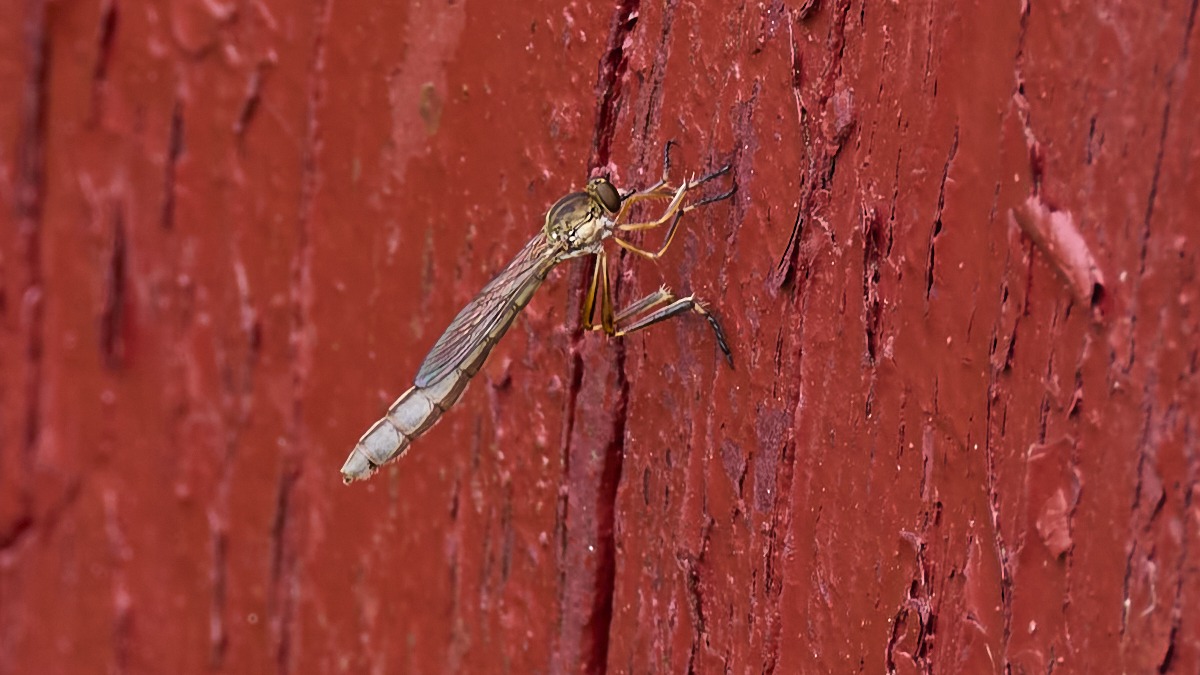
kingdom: Animalia
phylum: Arthropoda
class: Insecta
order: Diptera
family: Asilidae
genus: Leptogaster
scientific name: Leptogaster cylindrica
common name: Lang græsrovflue
